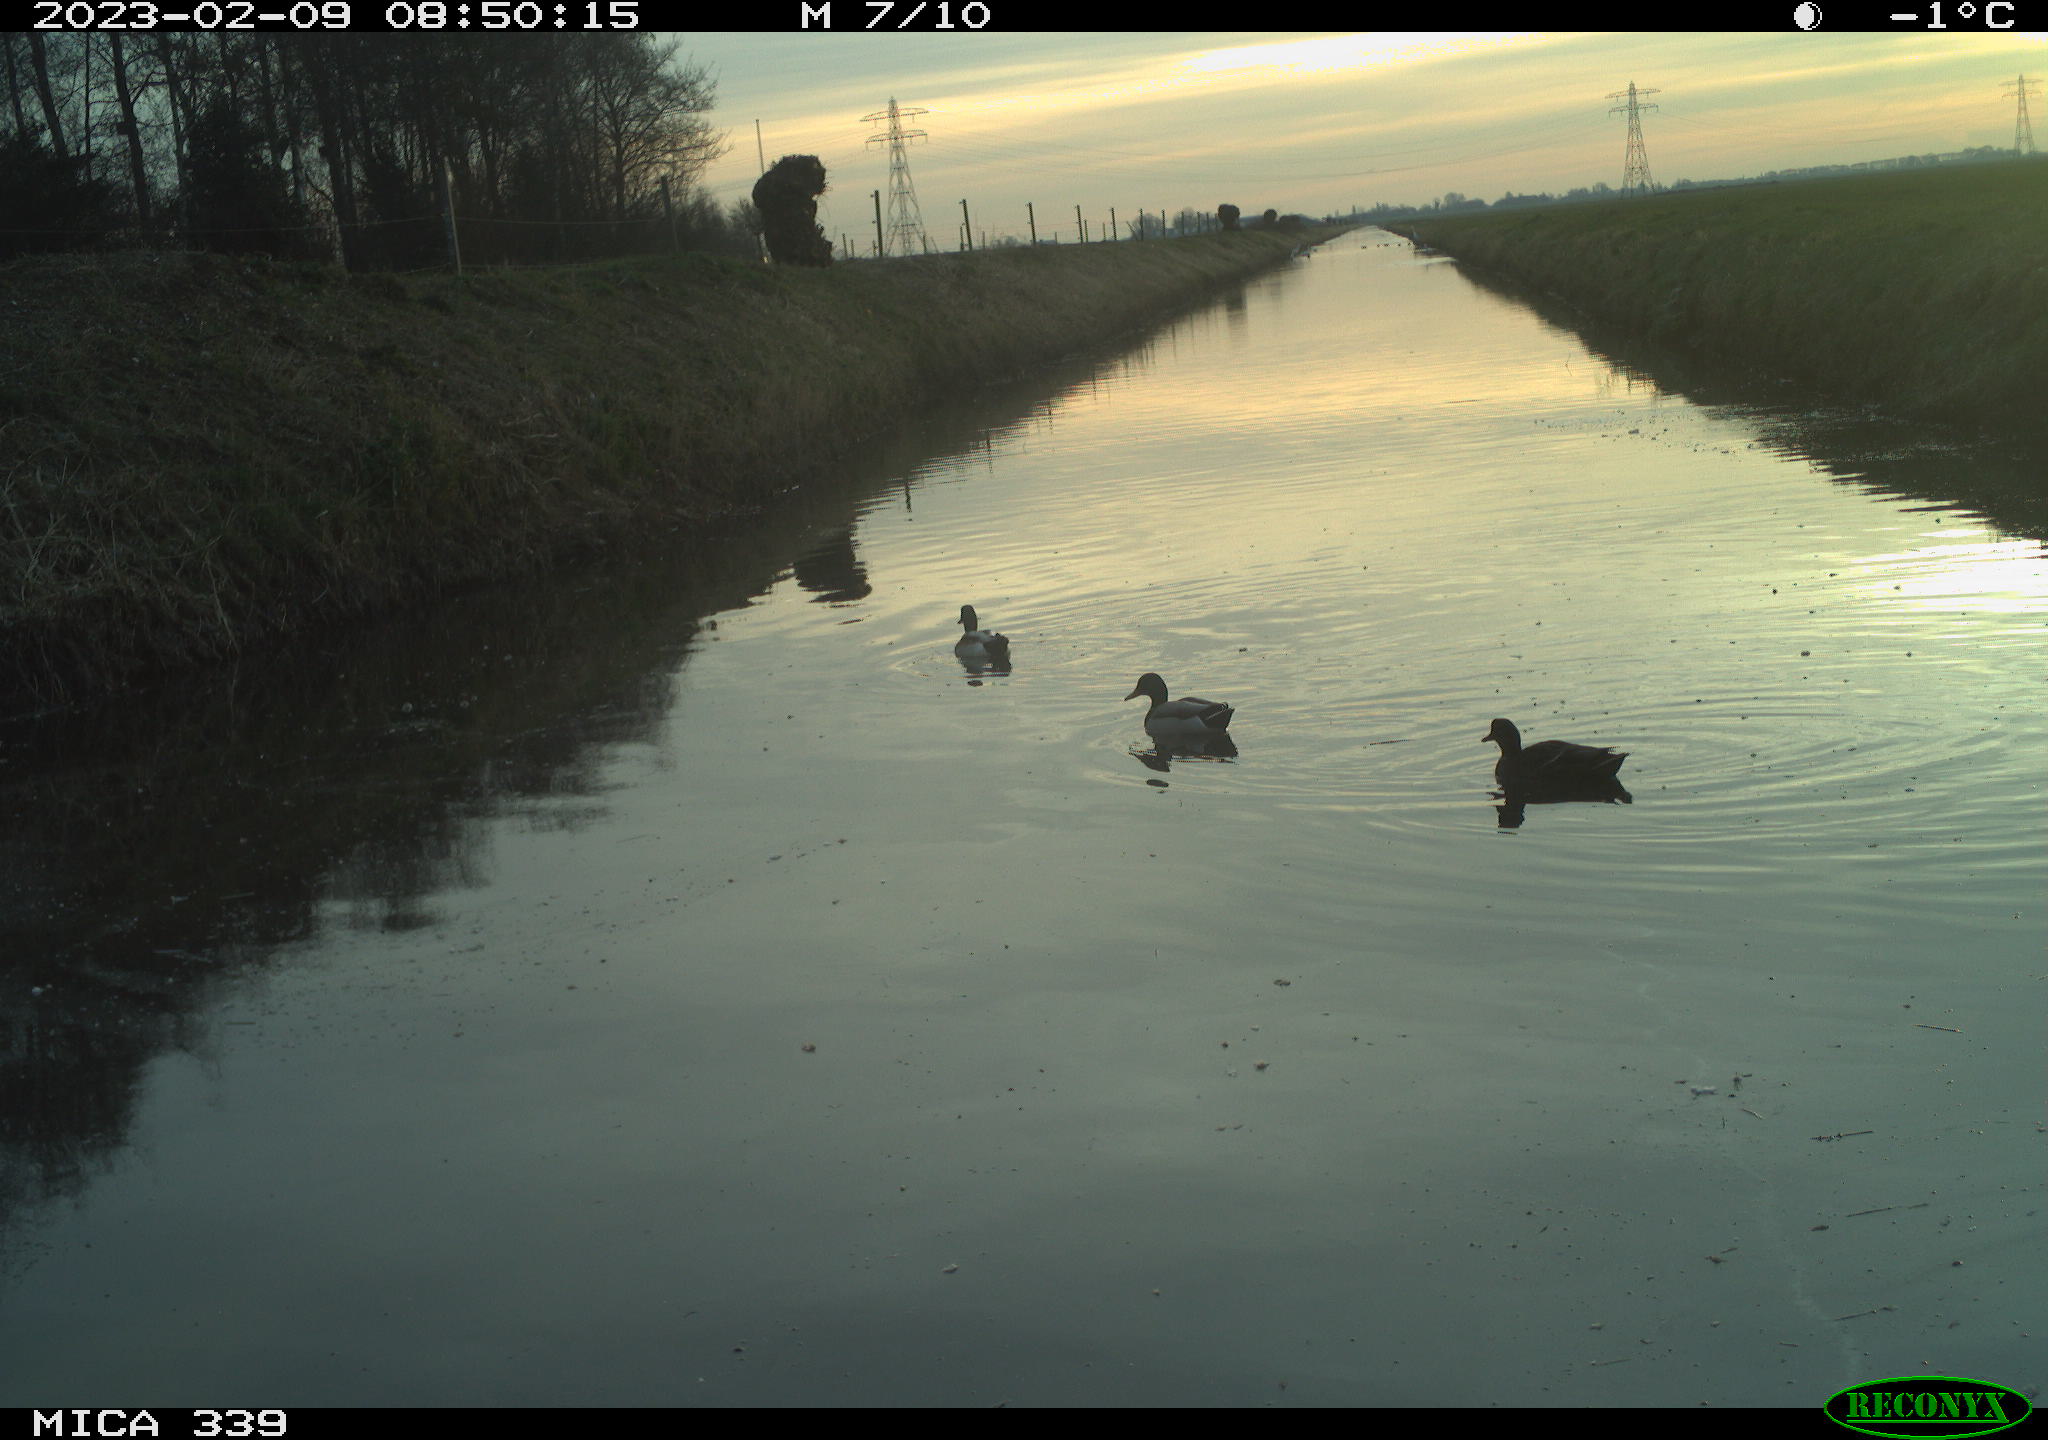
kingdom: Animalia
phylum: Chordata
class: Aves
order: Anseriformes
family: Anatidae
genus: Anas
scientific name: Anas
